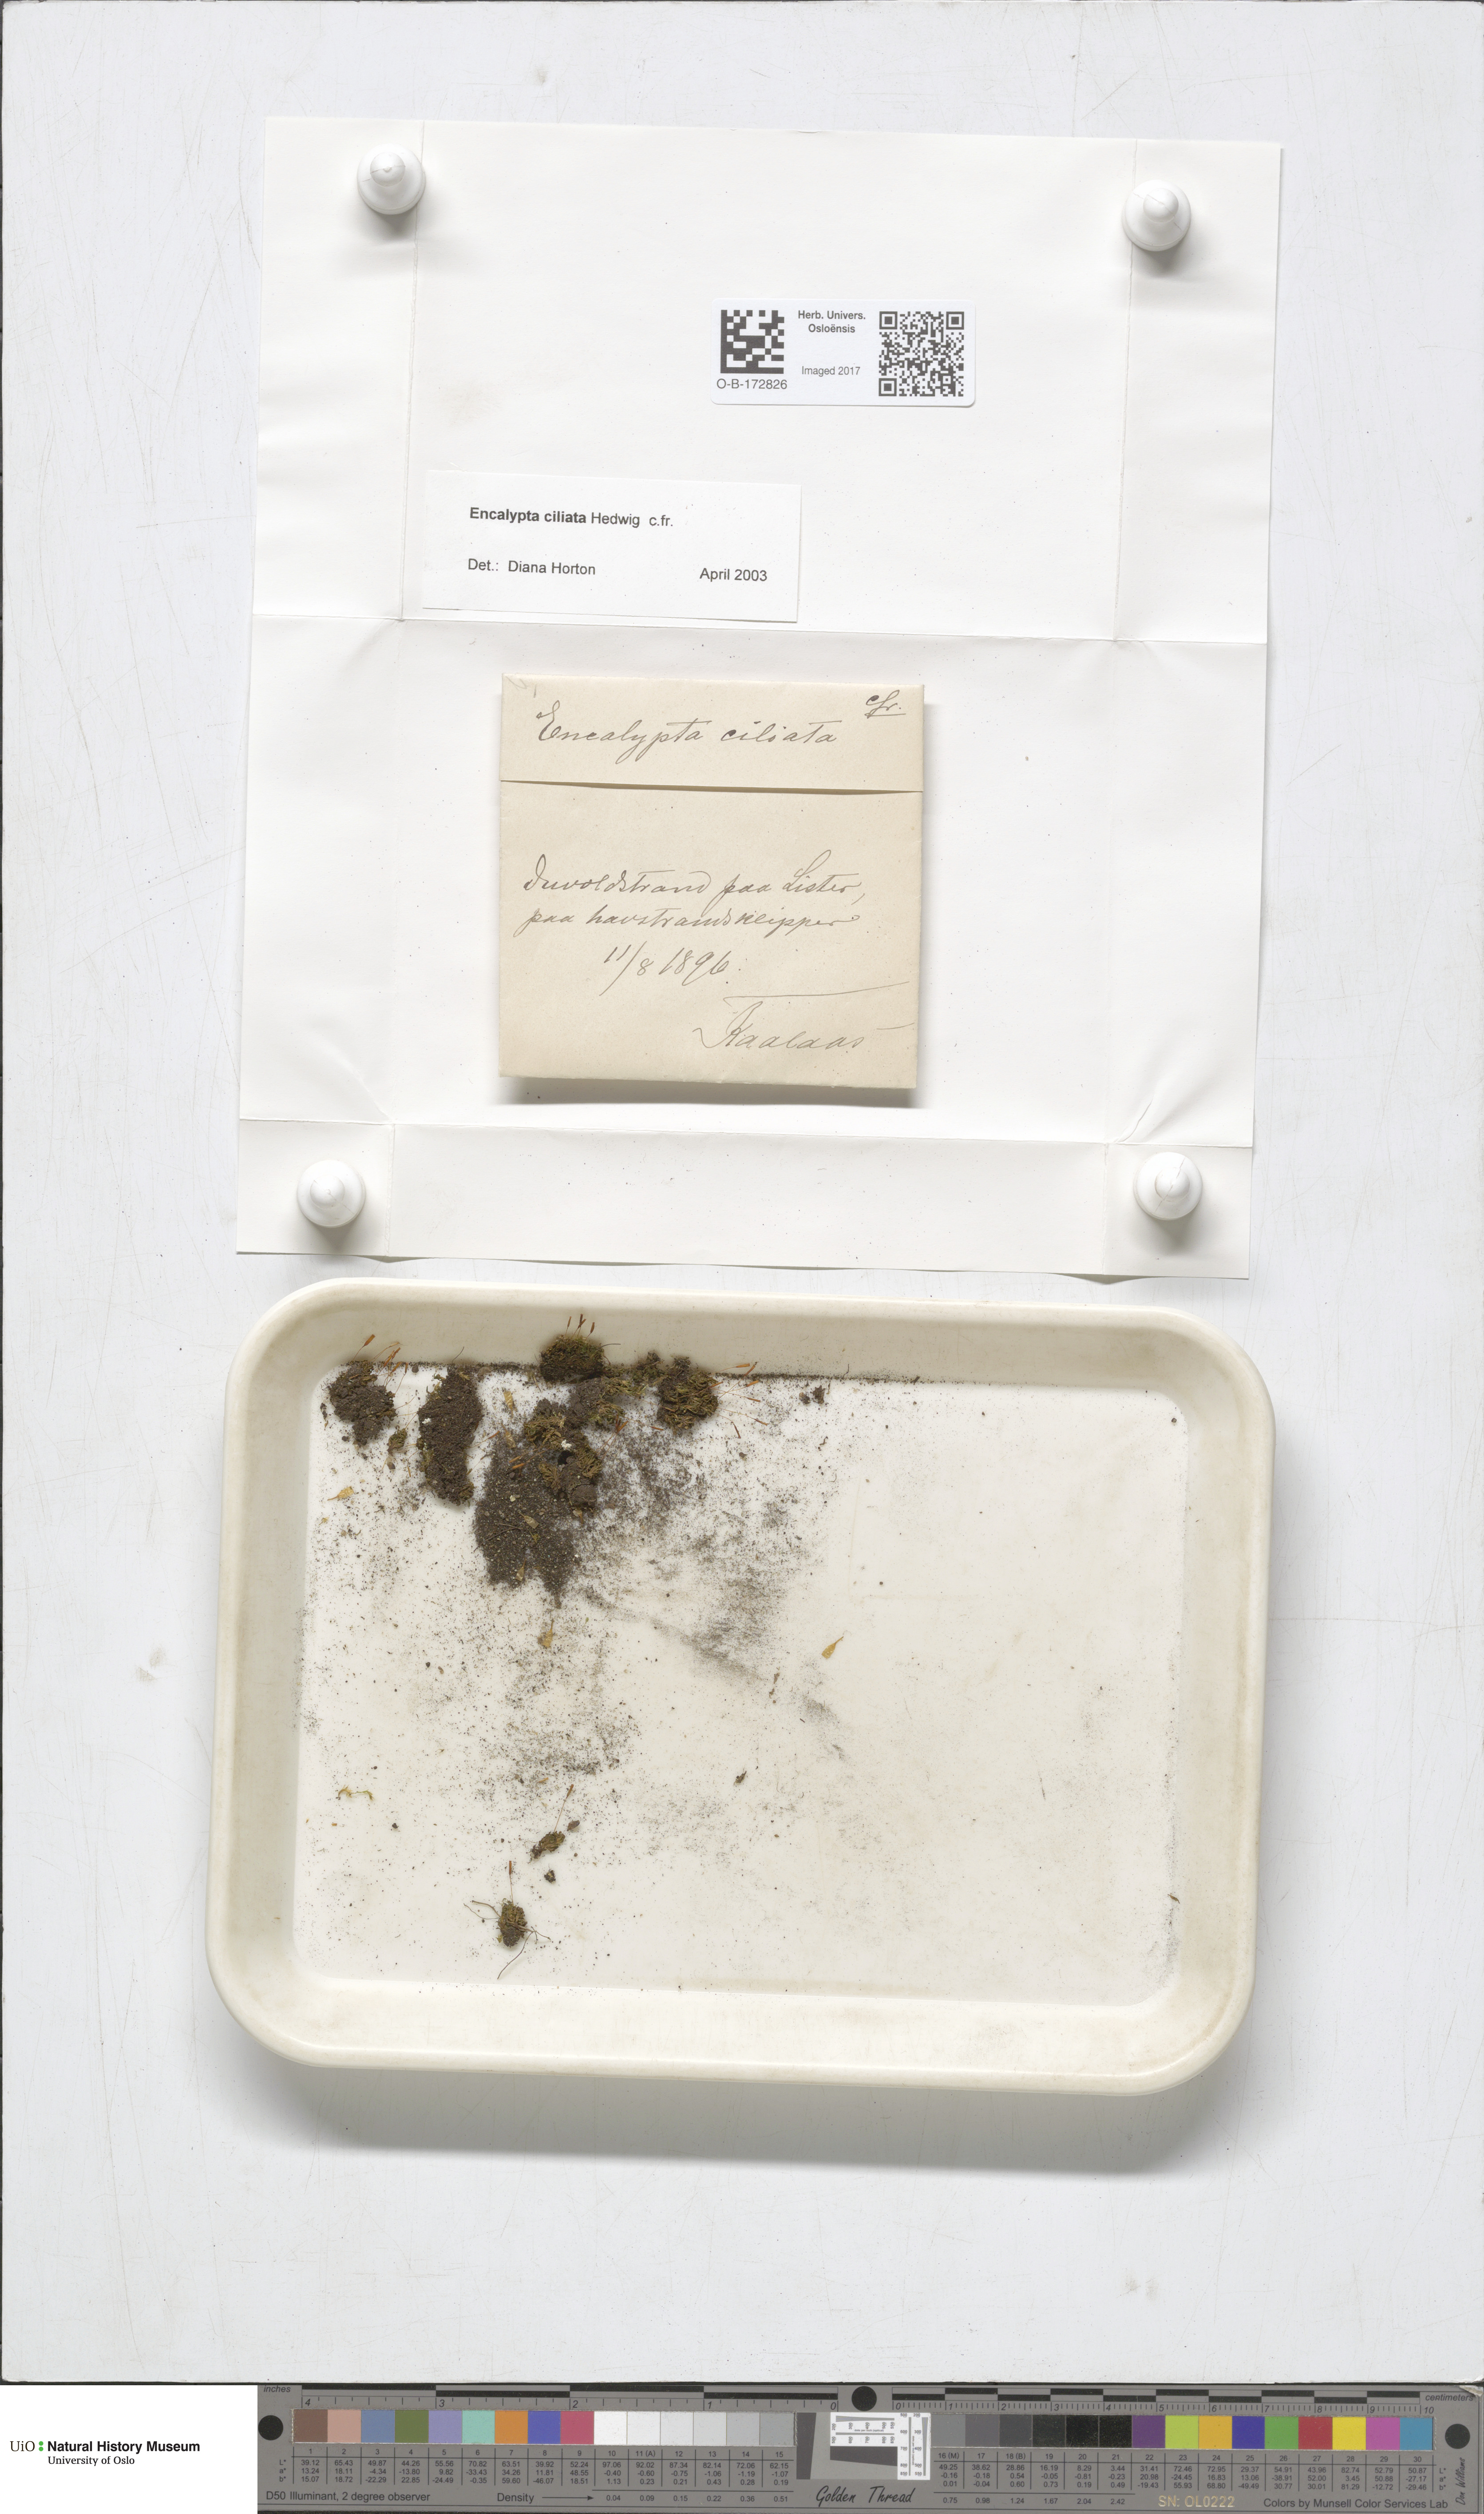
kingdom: Plantae
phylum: Bryophyta
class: Bryopsida
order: Encalyptales
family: Encalyptaceae
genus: Encalypta
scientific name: Encalypta ciliata
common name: Fringed extinguisher-moss
